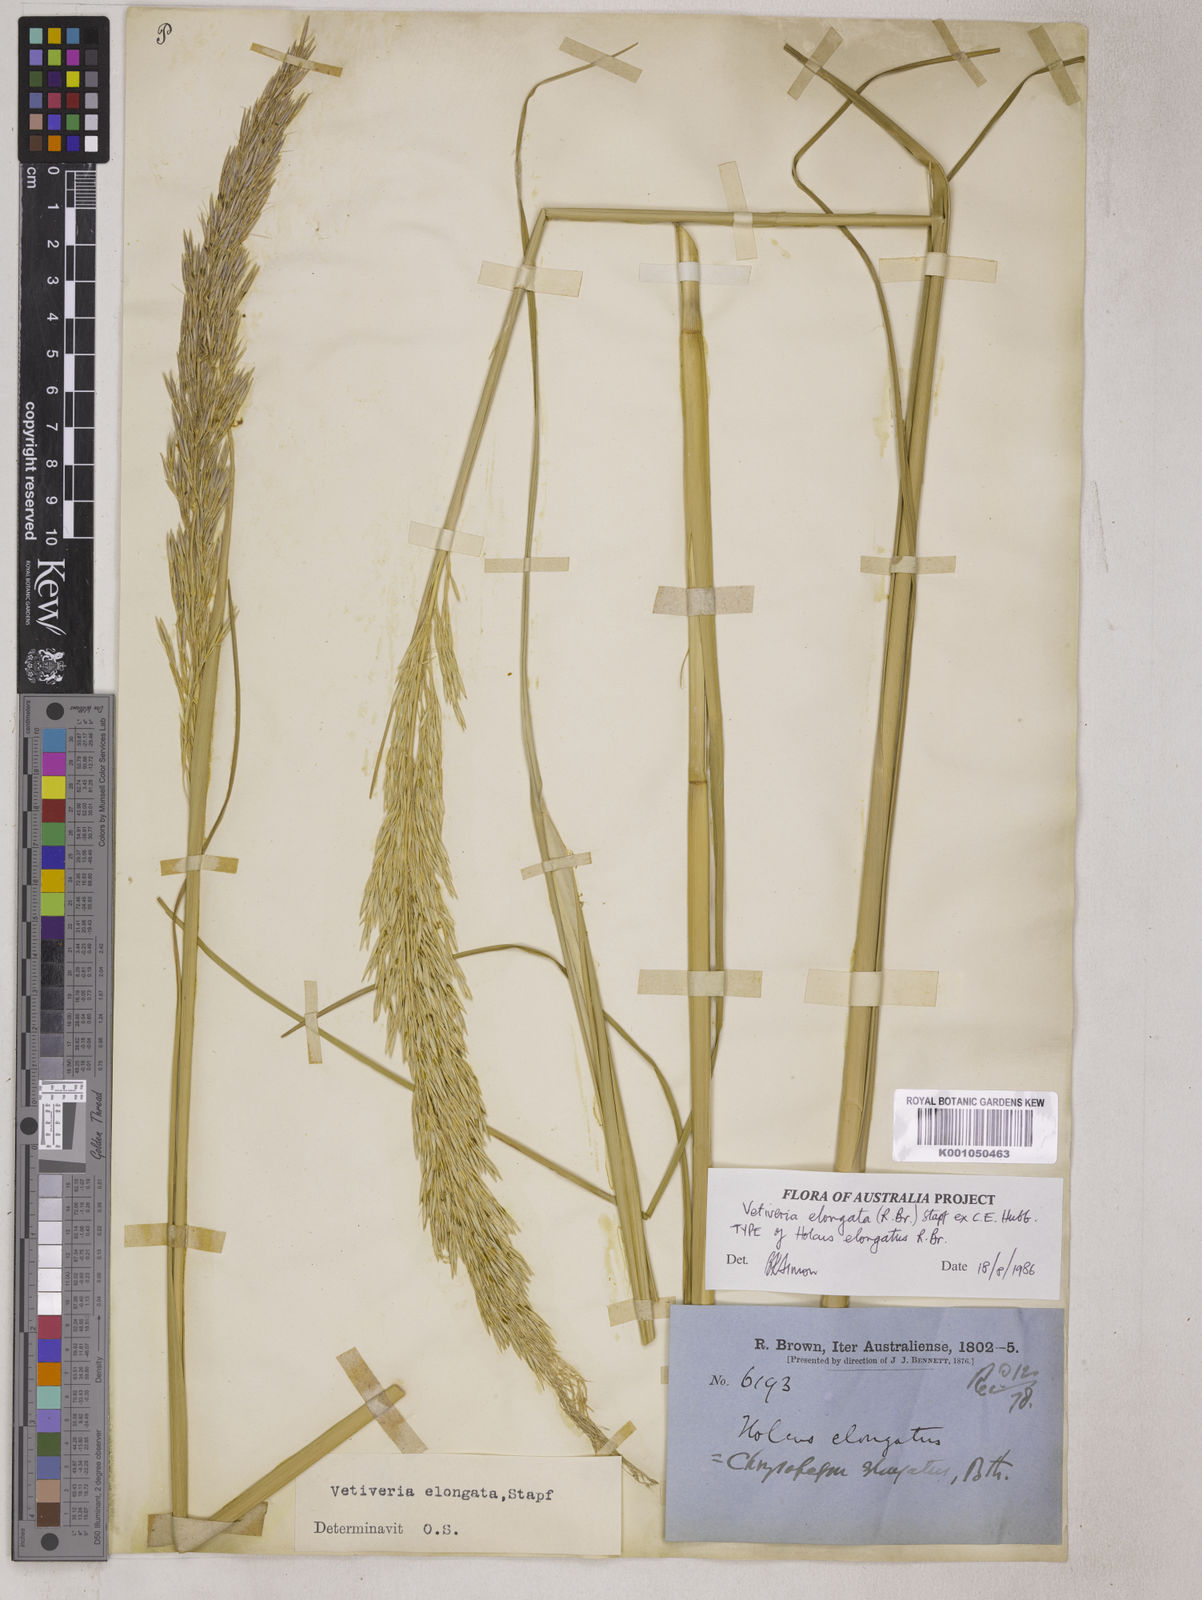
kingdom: Plantae
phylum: Tracheophyta
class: Liliopsida
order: Poales
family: Poaceae
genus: Chrysopogon
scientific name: Chrysopogon elongatus
